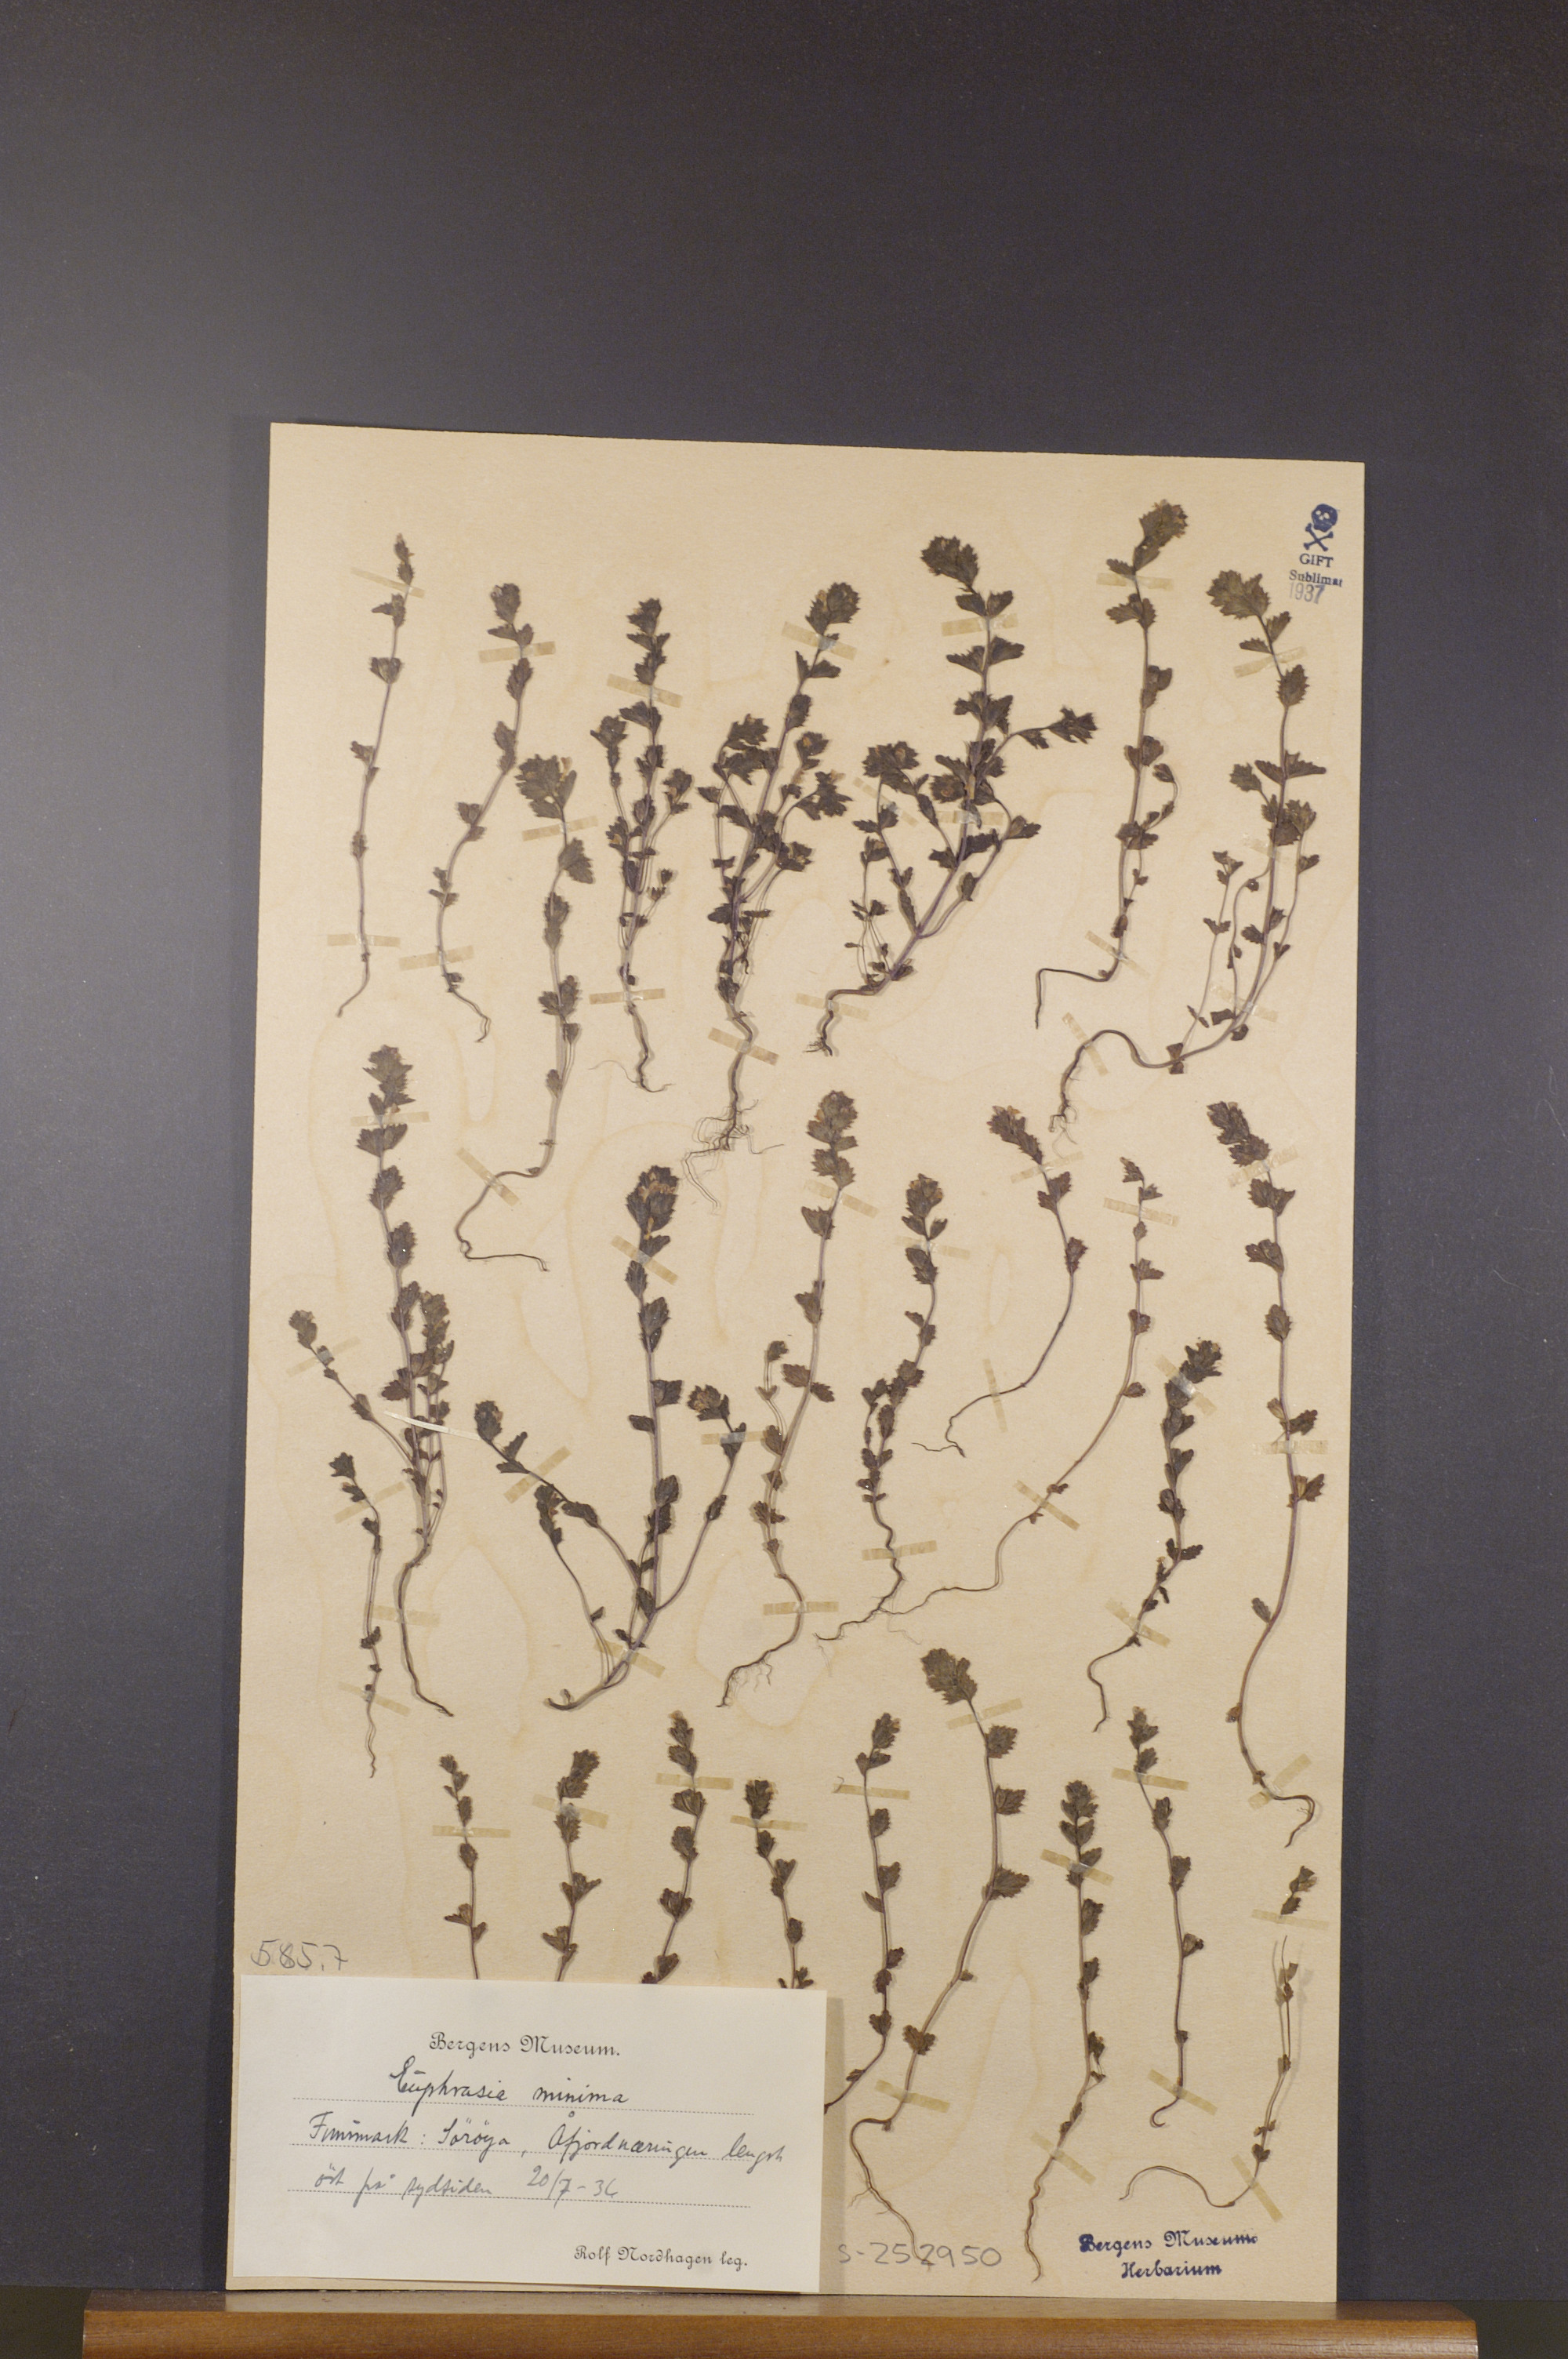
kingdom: Plantae
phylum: Tracheophyta
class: Magnoliopsida
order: Lamiales
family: Orobanchaceae
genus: Euphrasia
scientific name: Euphrasia minima
